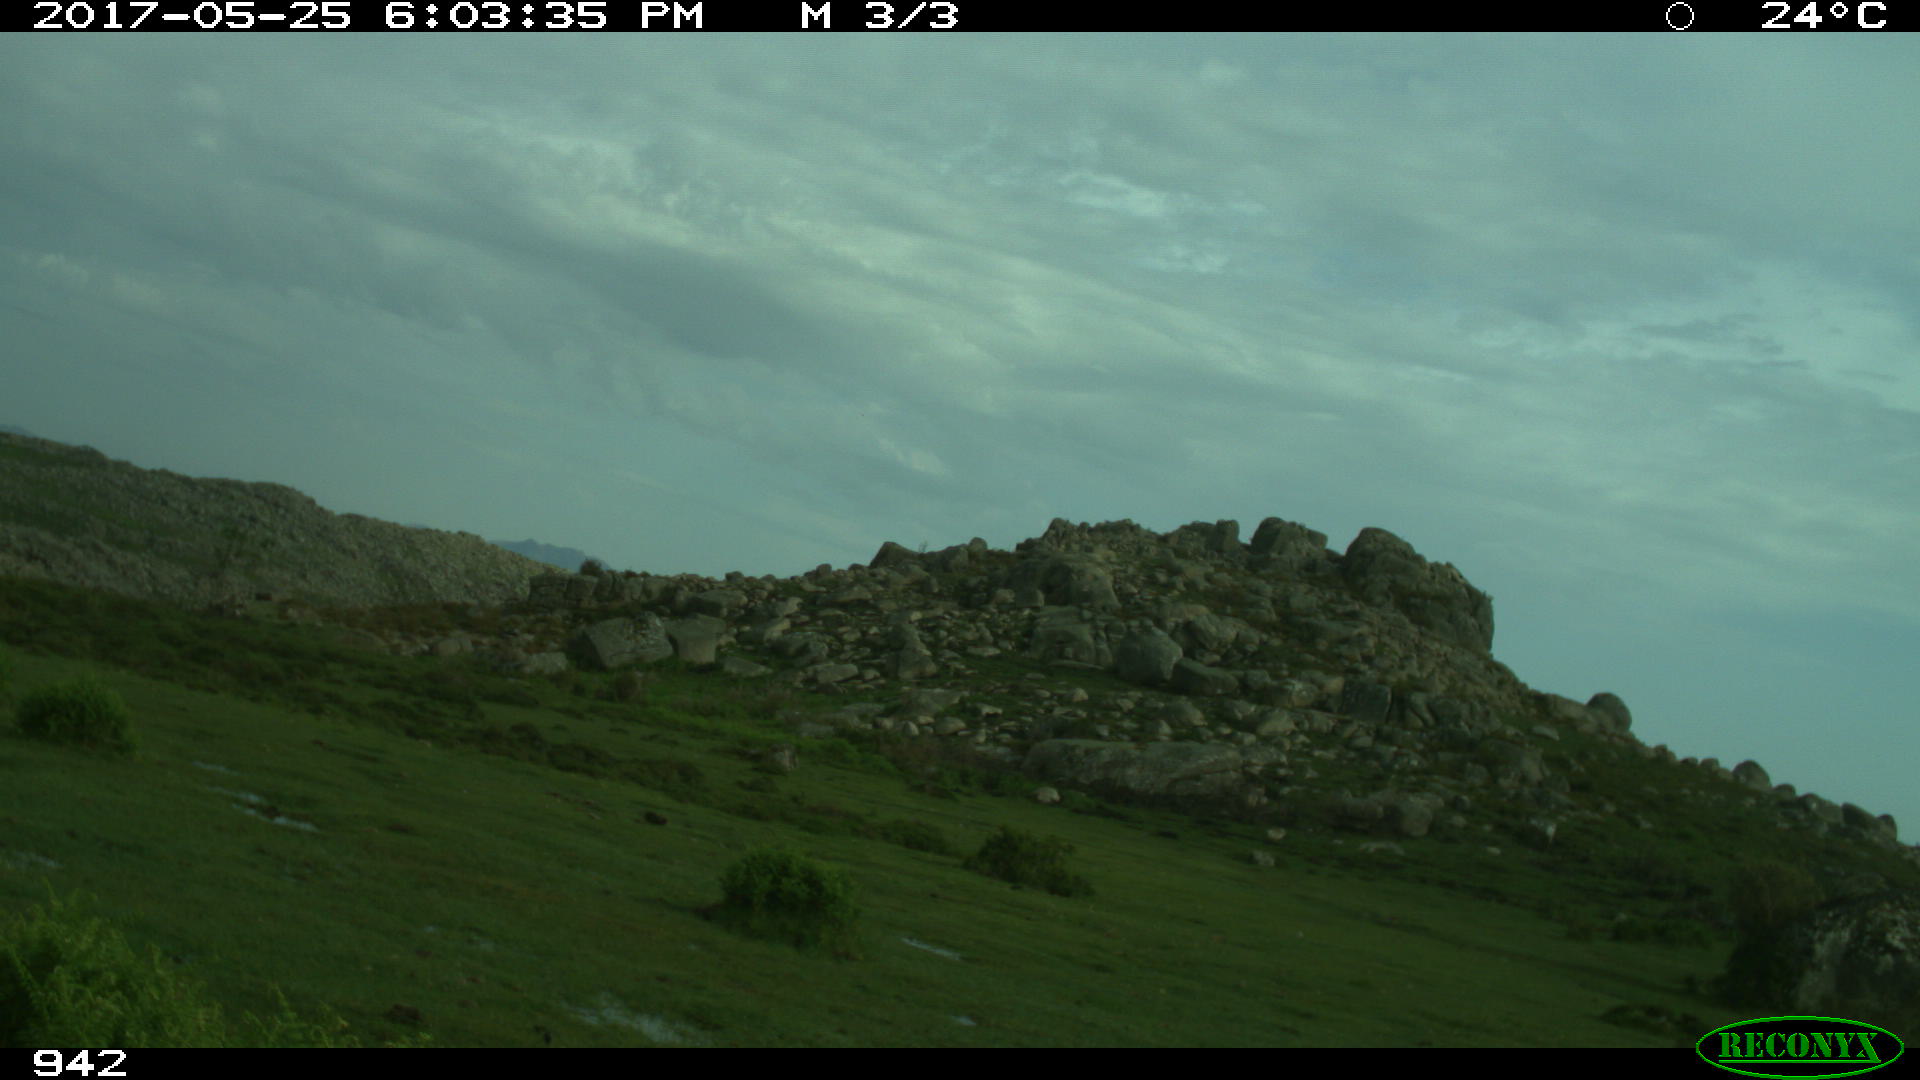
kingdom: Animalia
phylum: Chordata
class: Mammalia
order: Artiodactyla
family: Bovidae
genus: Bos
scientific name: Bos taurus
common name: Domesticated cattle
